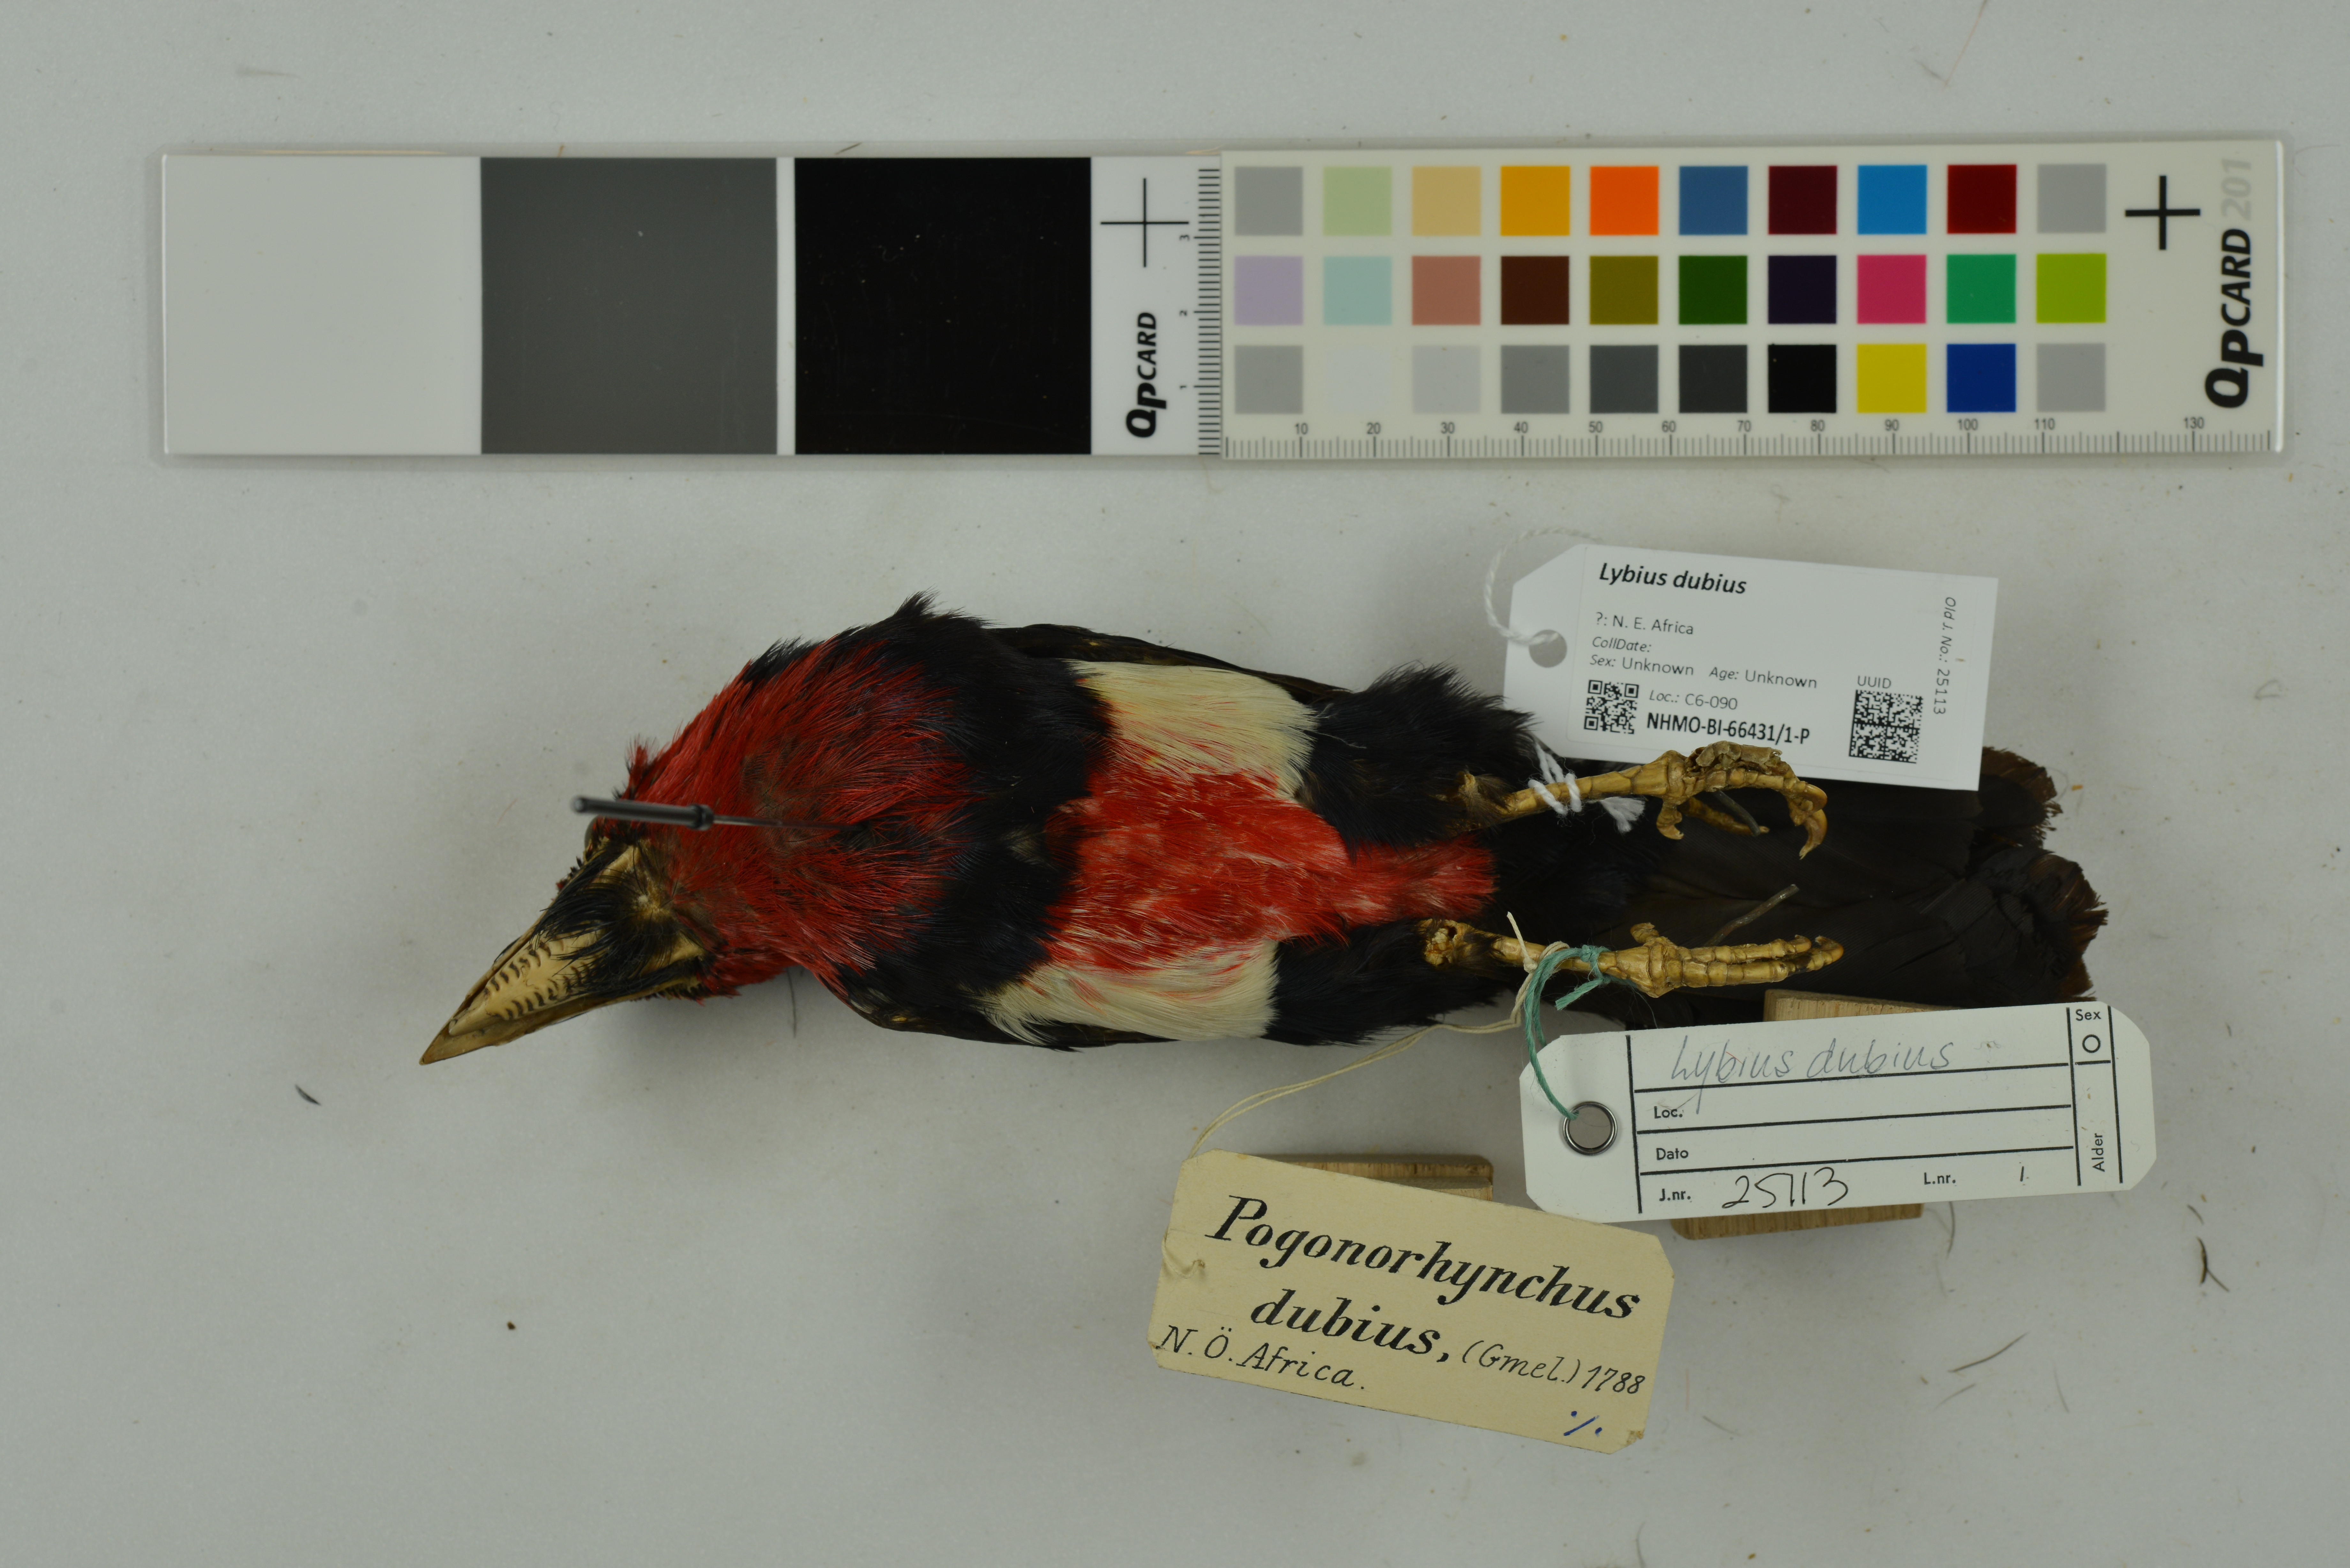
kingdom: Animalia
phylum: Chordata
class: Aves
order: Piciformes
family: Lybiidae
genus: Lybius
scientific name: Lybius dubius
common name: Bearded barbet
